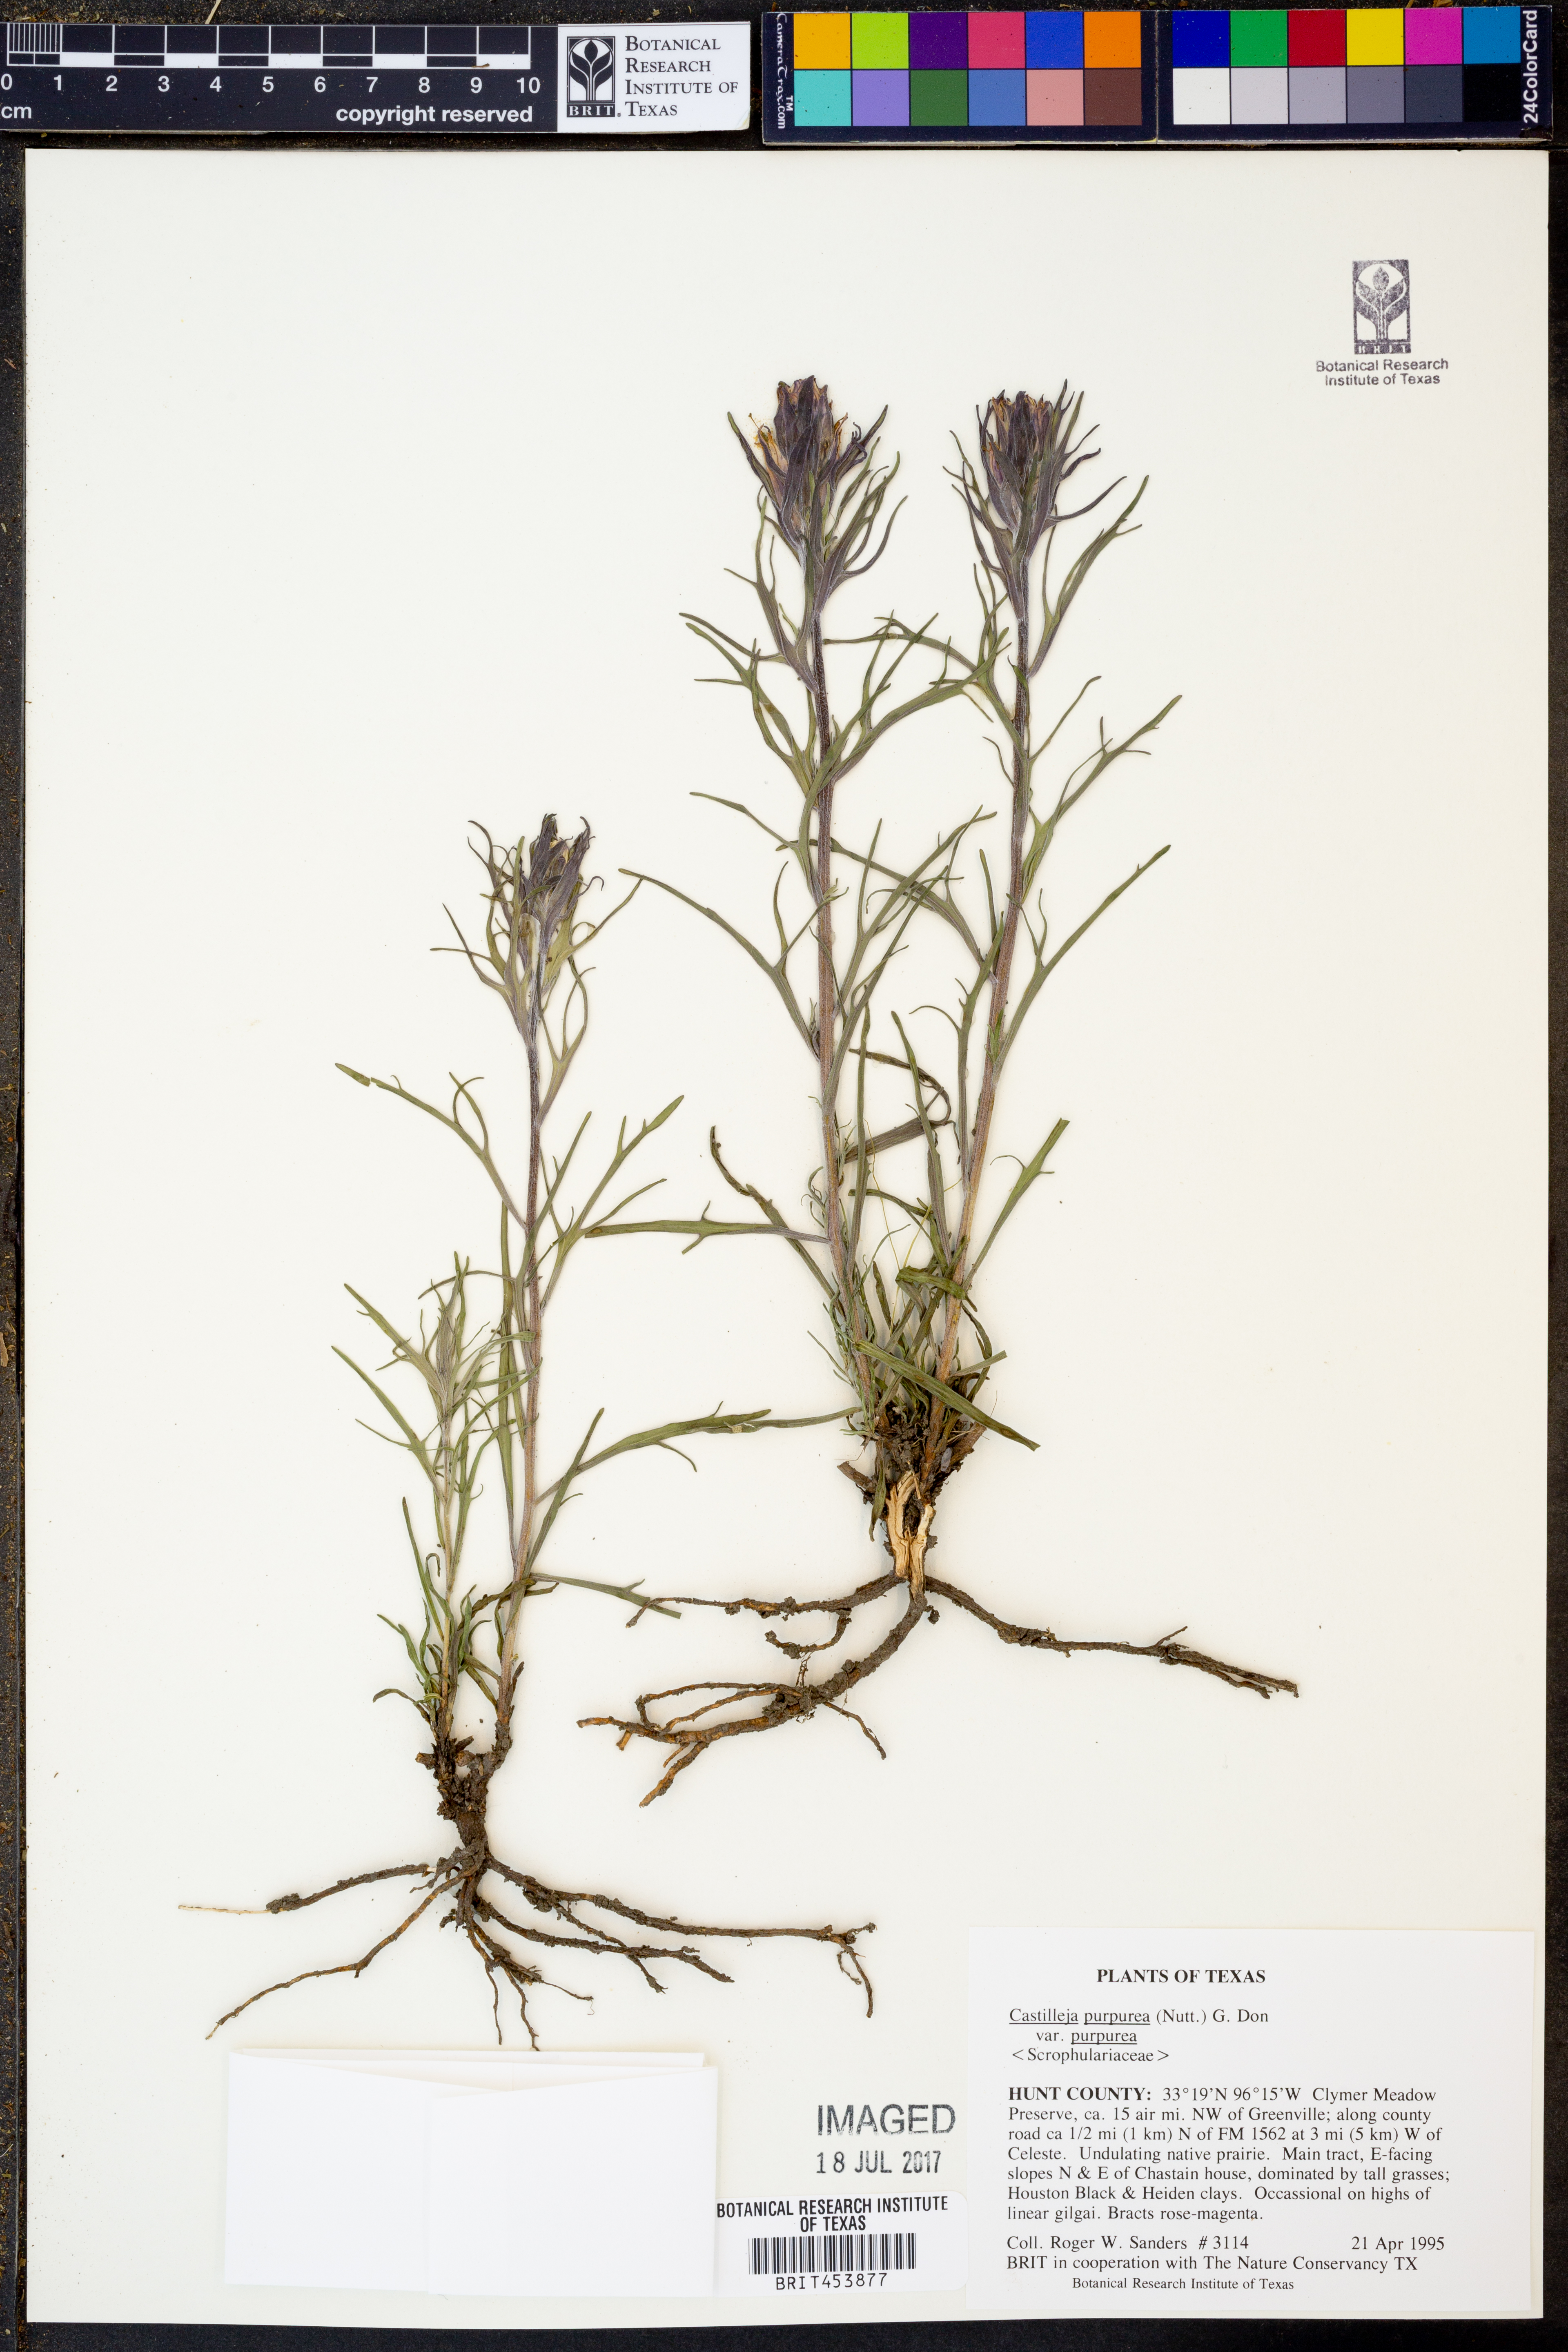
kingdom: Plantae
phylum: Tracheophyta
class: Magnoliopsida
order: Lamiales
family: Orobanchaceae
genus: Castilleja
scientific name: Castilleja purpurea
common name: Plains paintbrush
